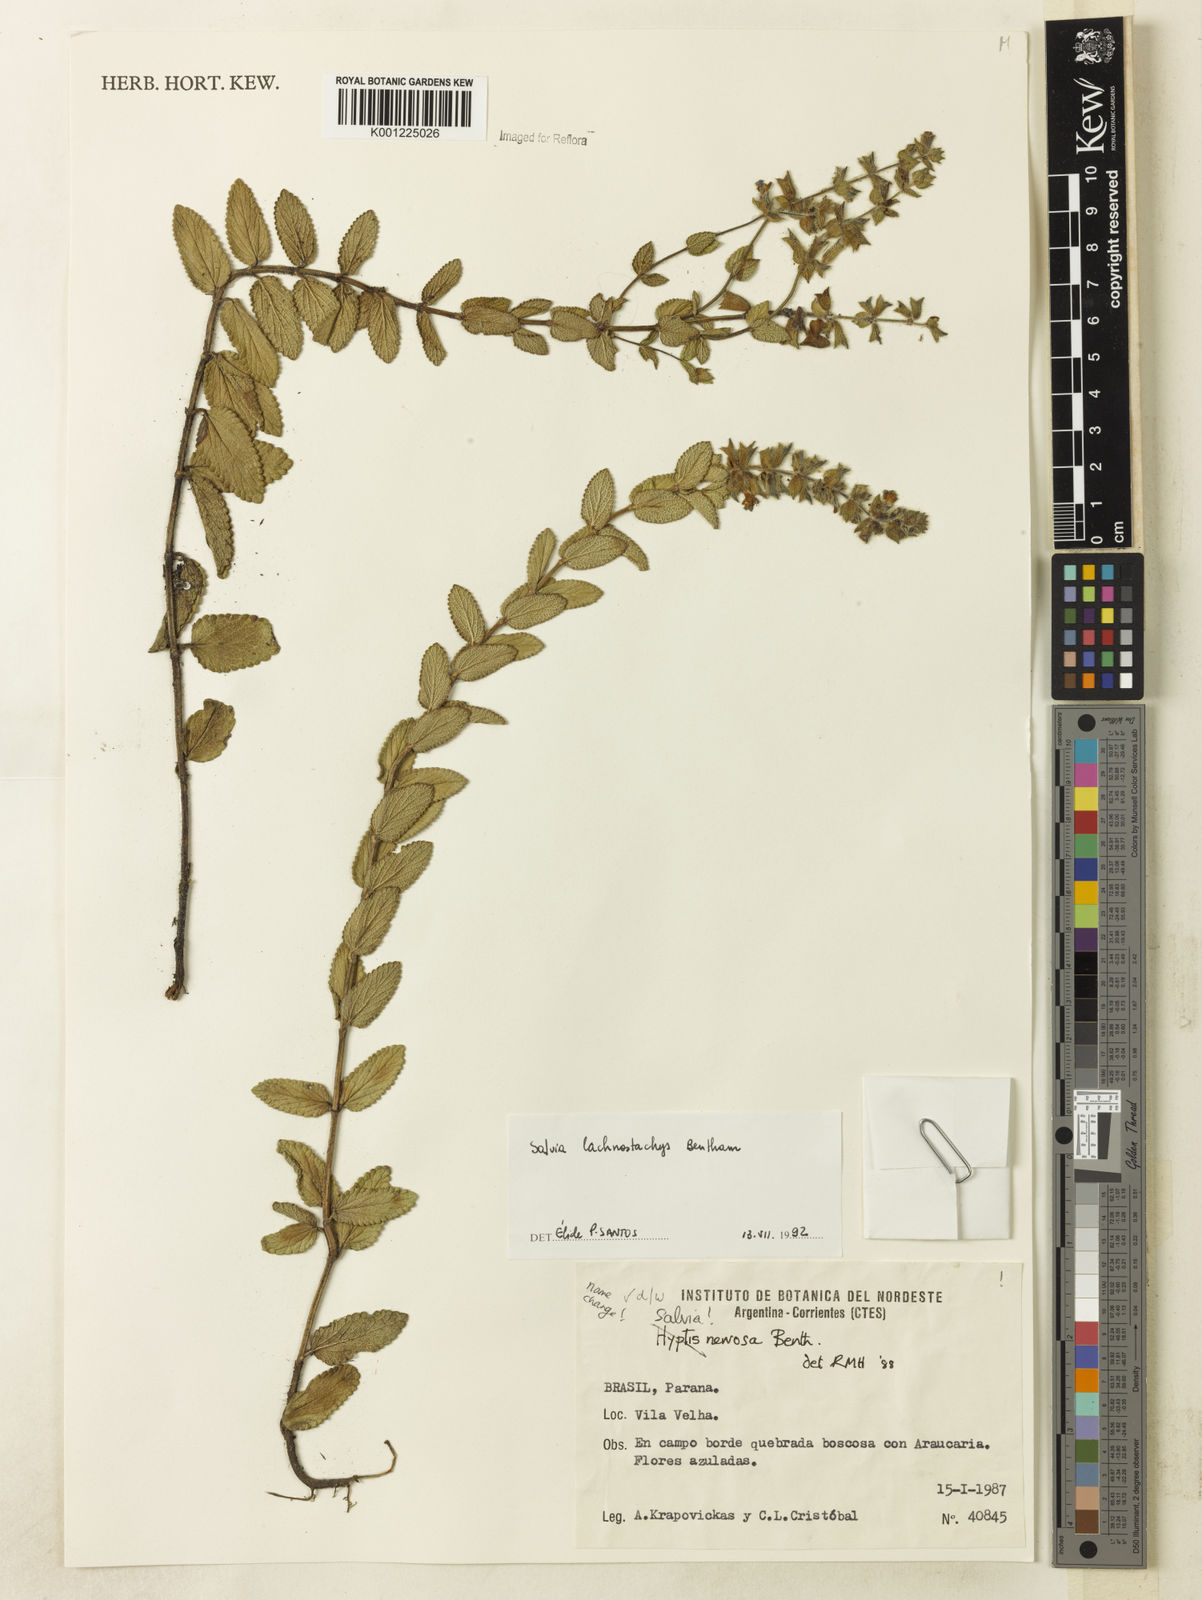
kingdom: Plantae
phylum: Tracheophyta
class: Magnoliopsida
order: Lamiales
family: Lamiaceae
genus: Salvia
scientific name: Salvia lachnostachys
